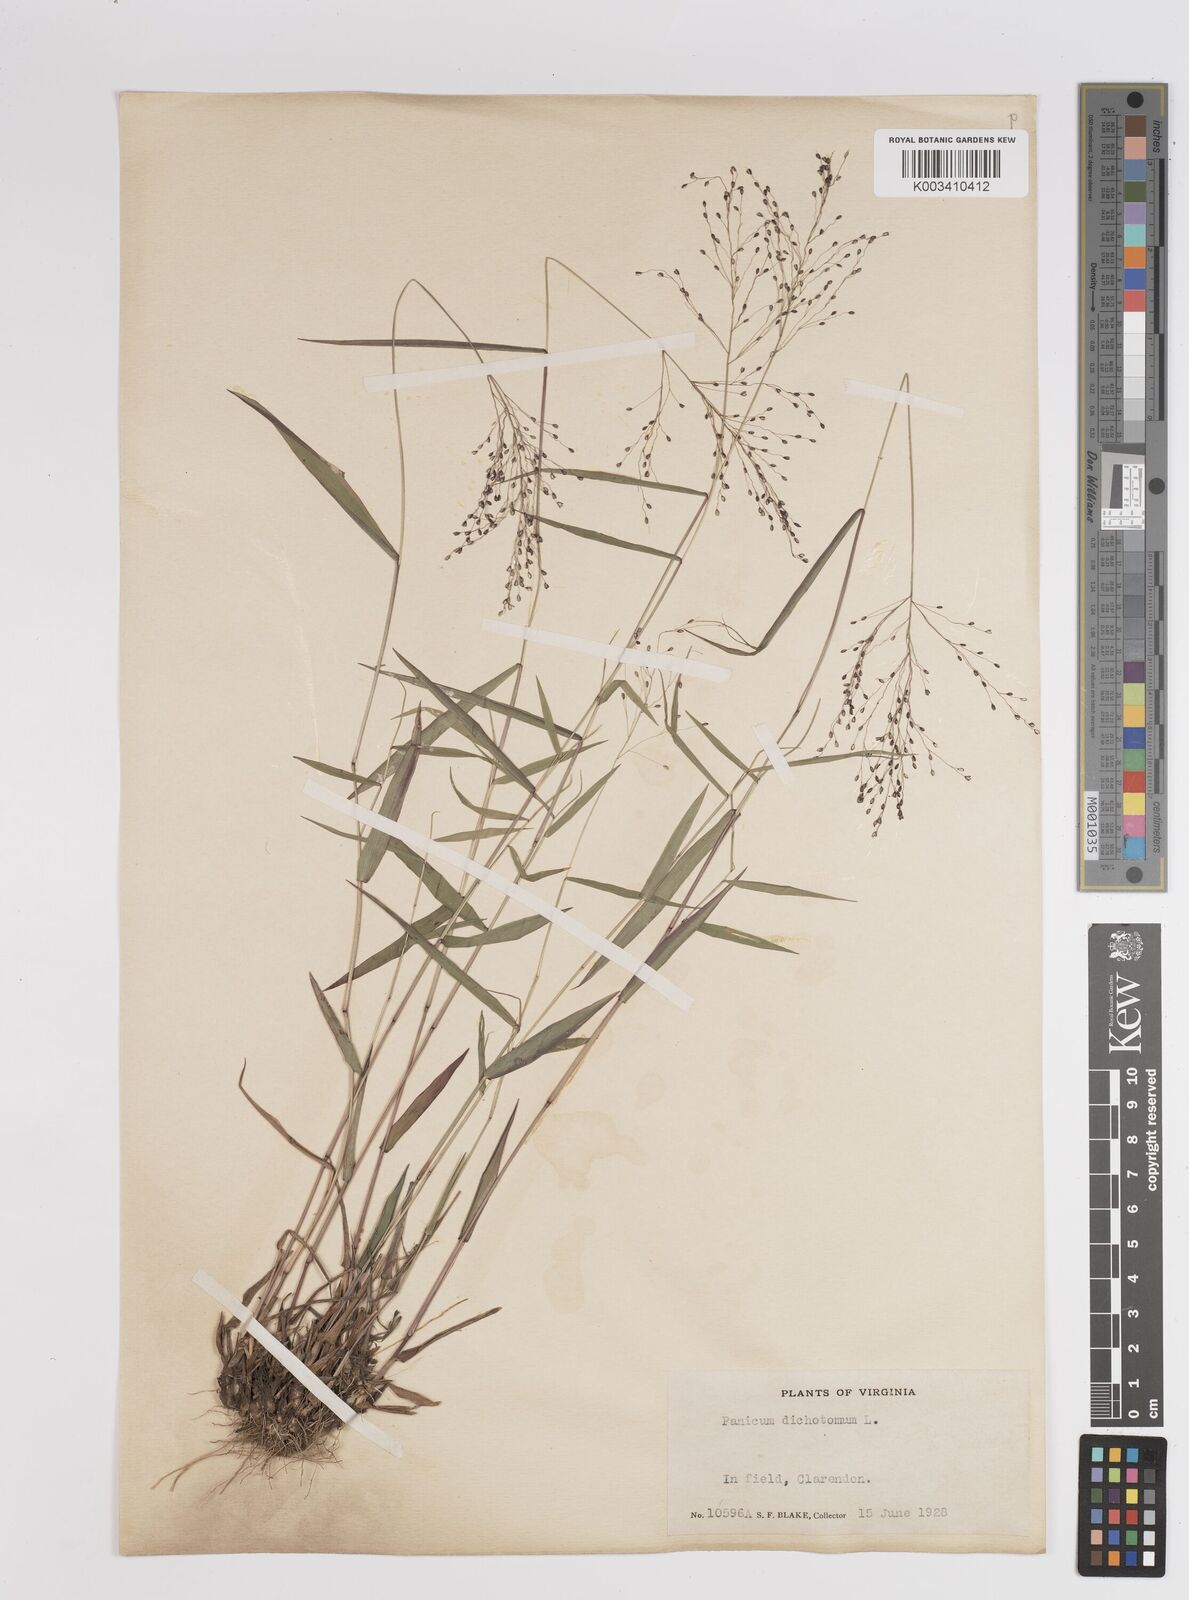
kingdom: Plantae
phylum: Tracheophyta
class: Liliopsida
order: Poales
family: Poaceae
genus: Dichanthelium
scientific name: Dichanthelium dichotomum
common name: Cypress panicgrass
